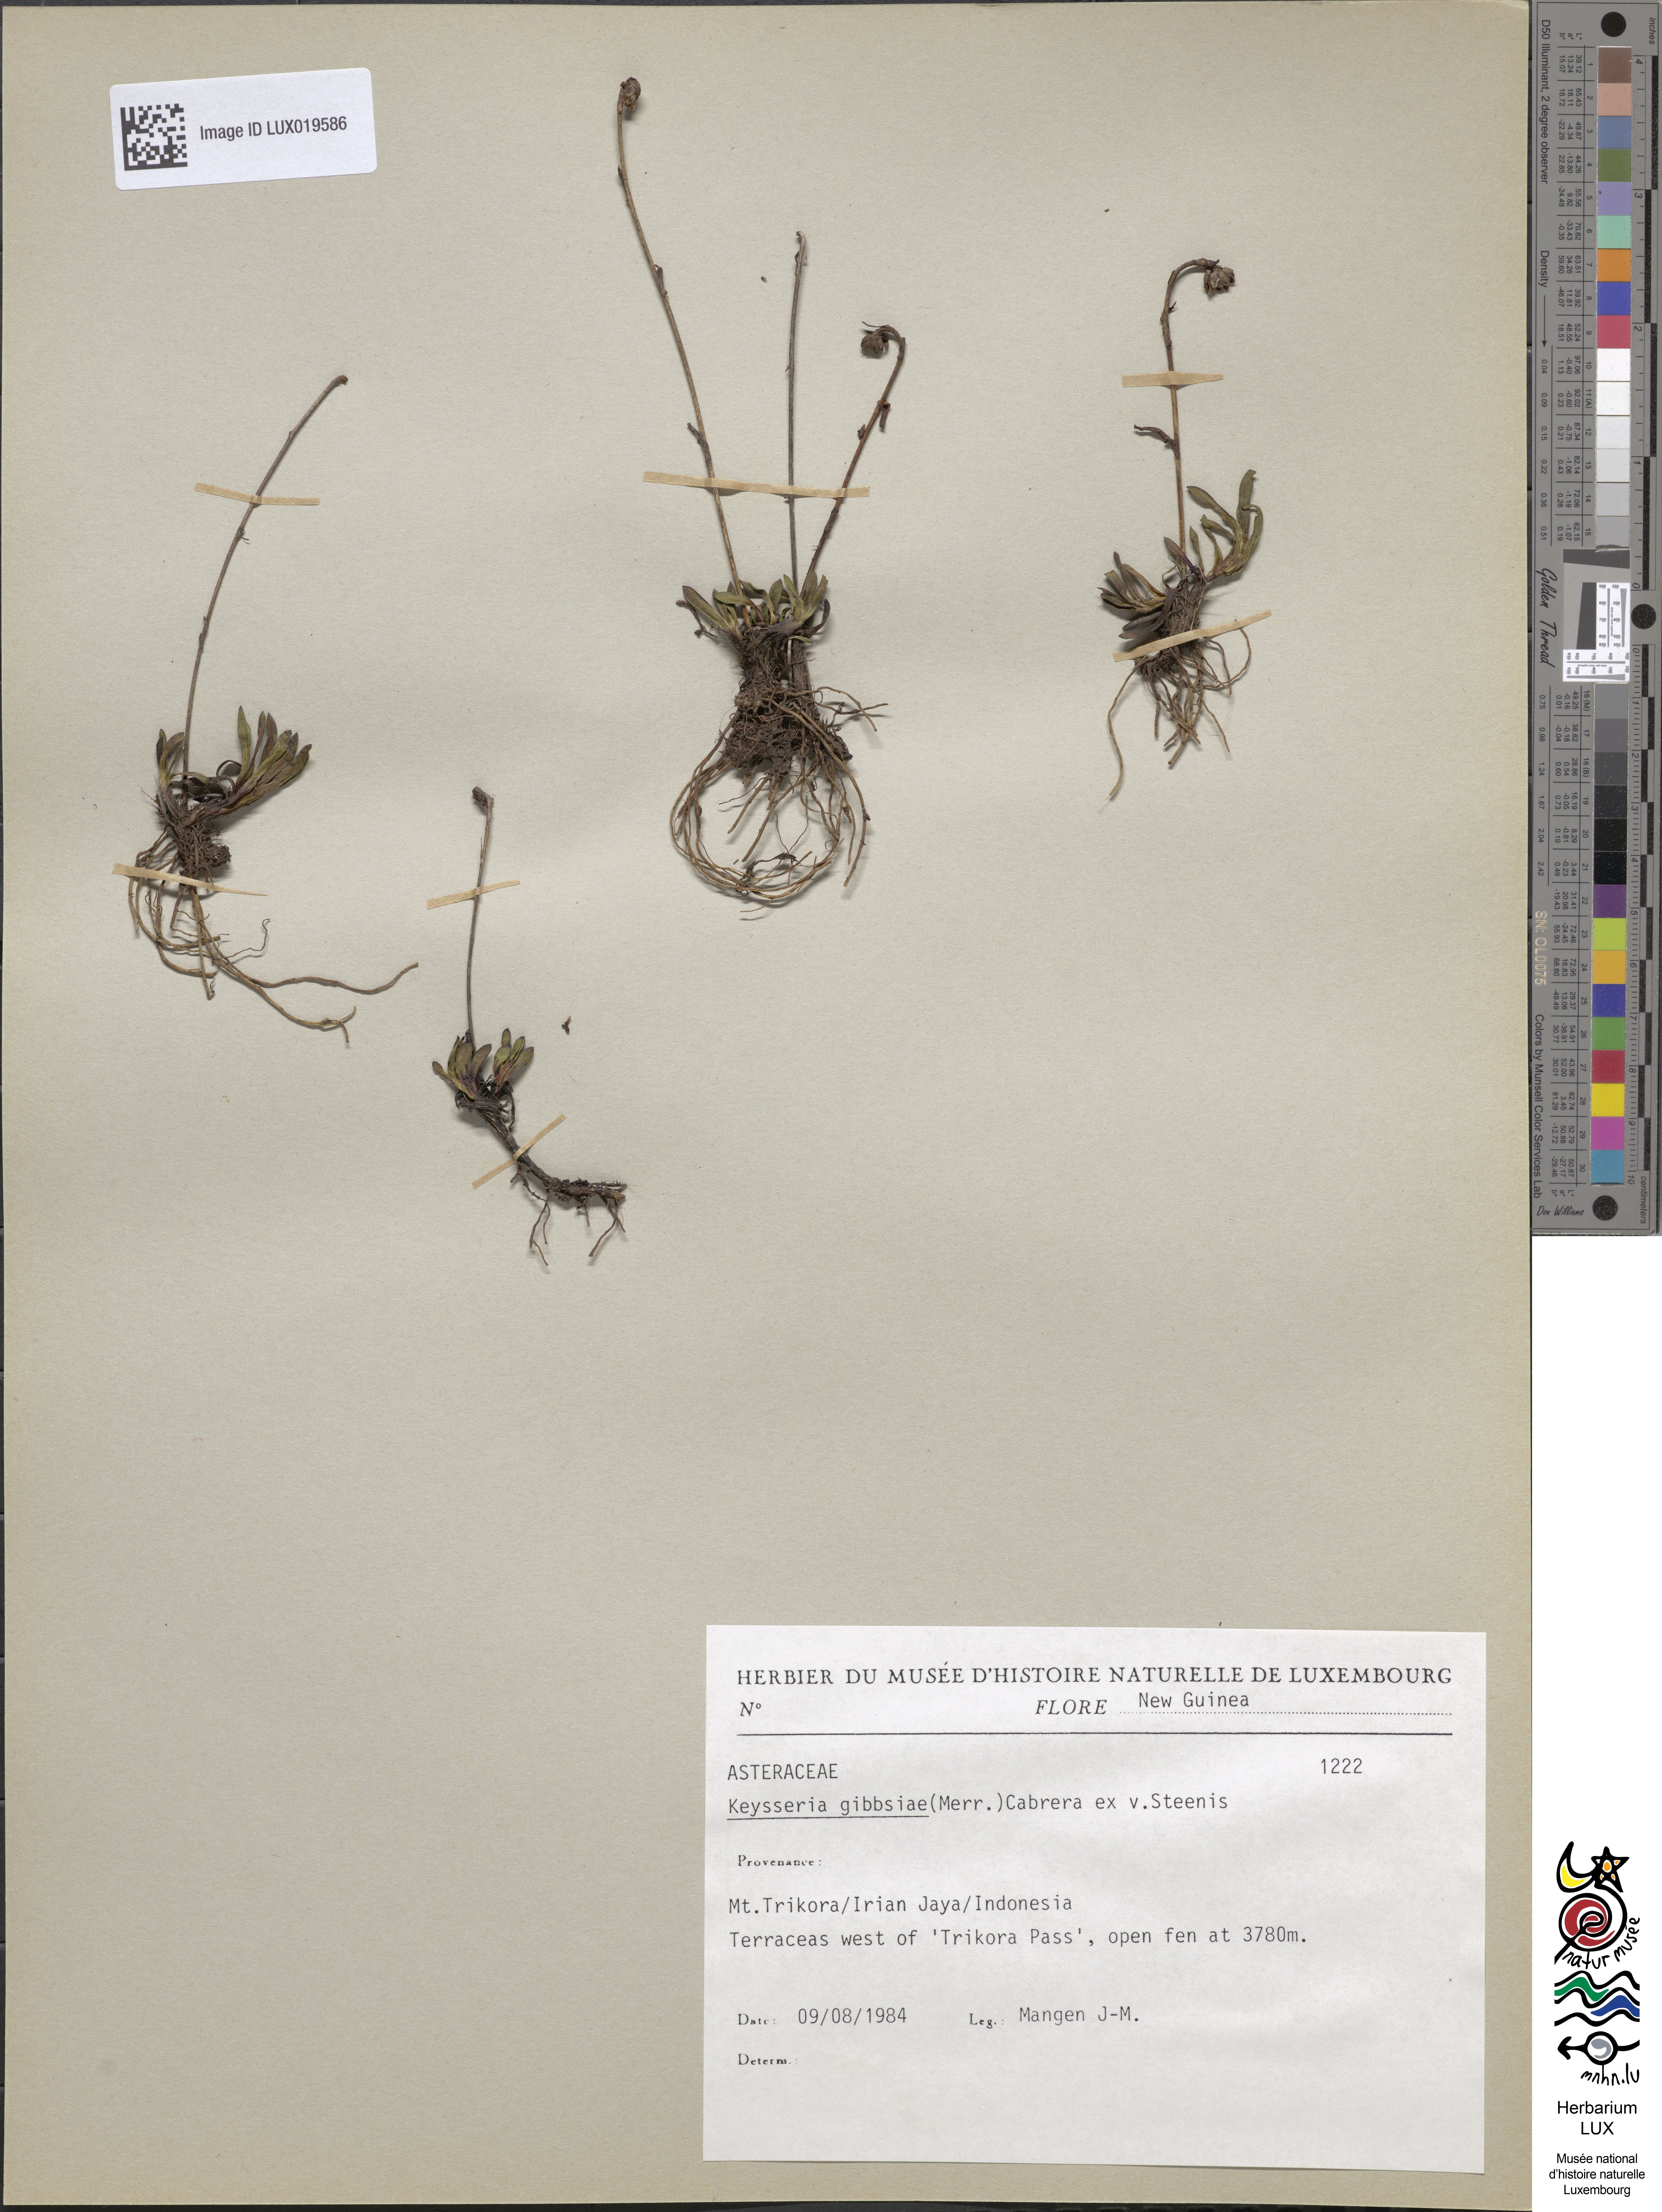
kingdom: Plantae
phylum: Tracheophyta
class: Magnoliopsida
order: Asterales
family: Asteraceae
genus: Keysseria
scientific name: Keysseria gibbsiae
